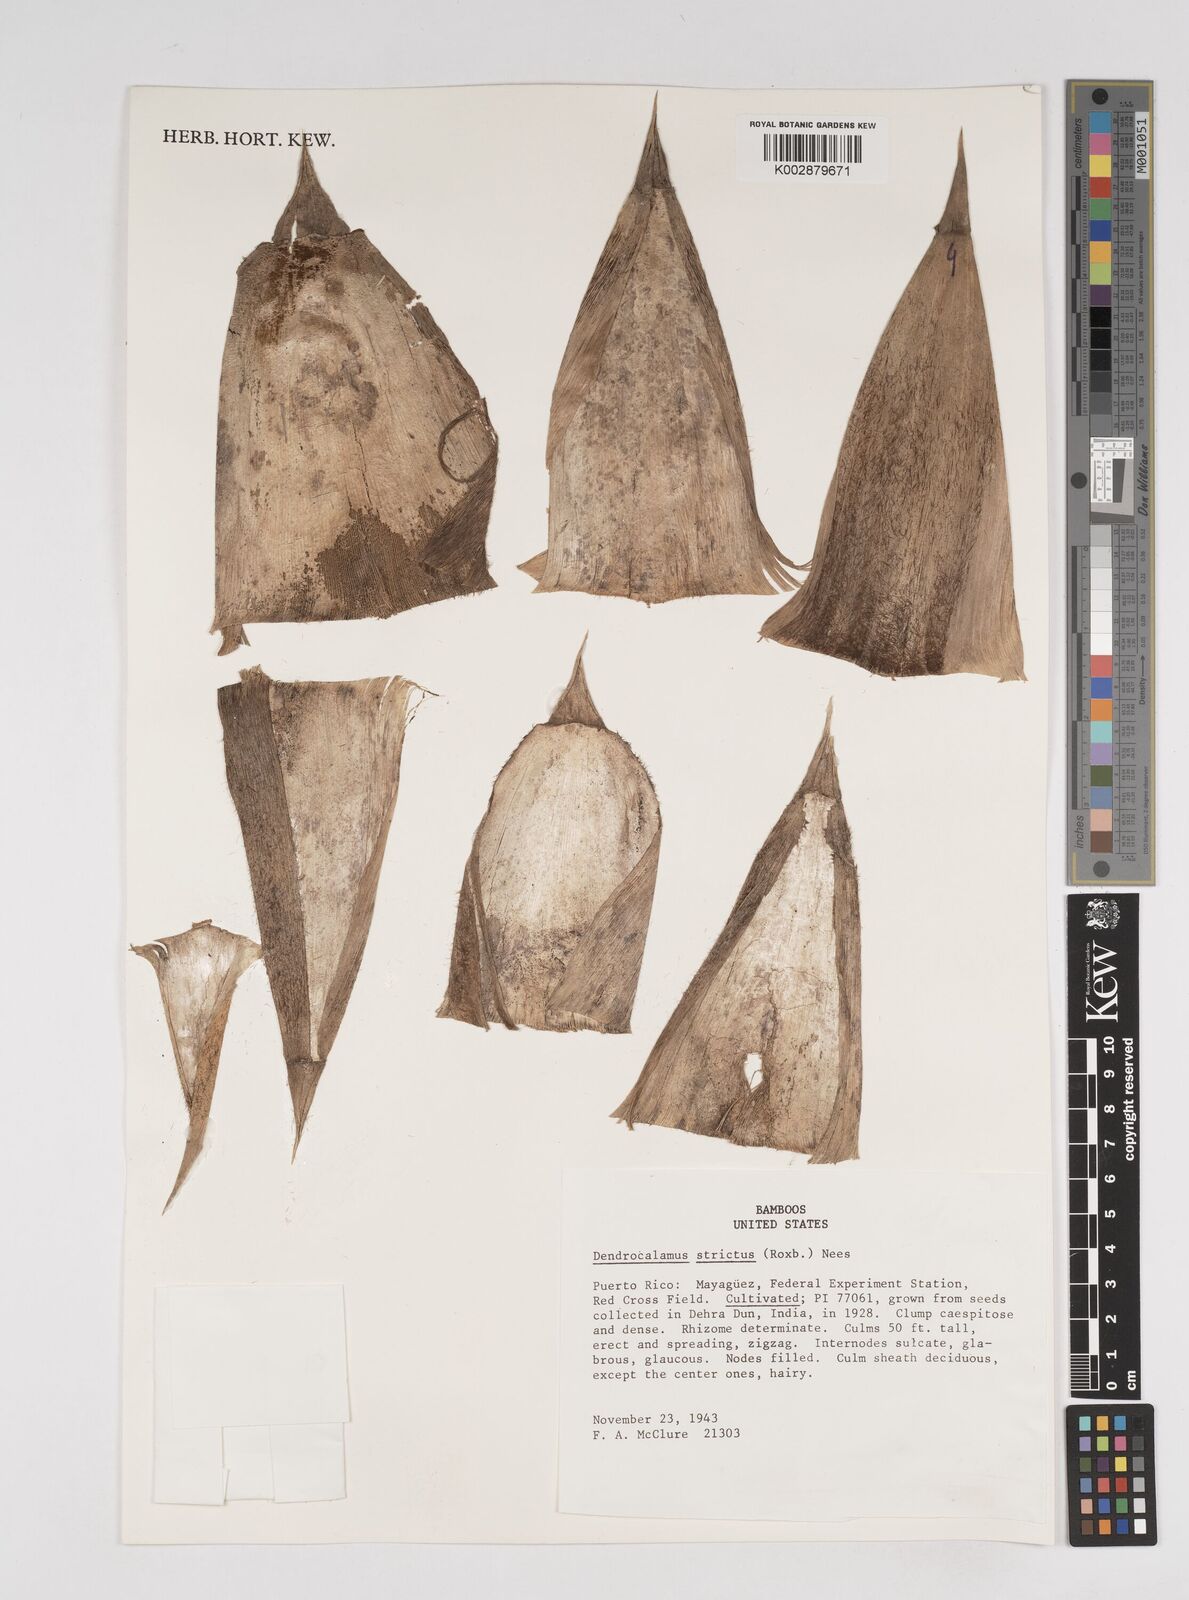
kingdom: Plantae
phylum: Tracheophyta
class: Liliopsida
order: Poales
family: Poaceae
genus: Dendrocalamus
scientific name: Dendrocalamus strictus
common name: Male bamboo
